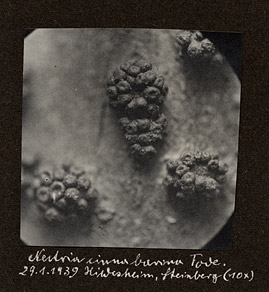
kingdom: Fungi
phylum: Ascomycota
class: Sordariomycetes
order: Hypocreales
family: Nectriaceae
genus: Nectria
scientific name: Nectria cinnabarina
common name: Coral spot
